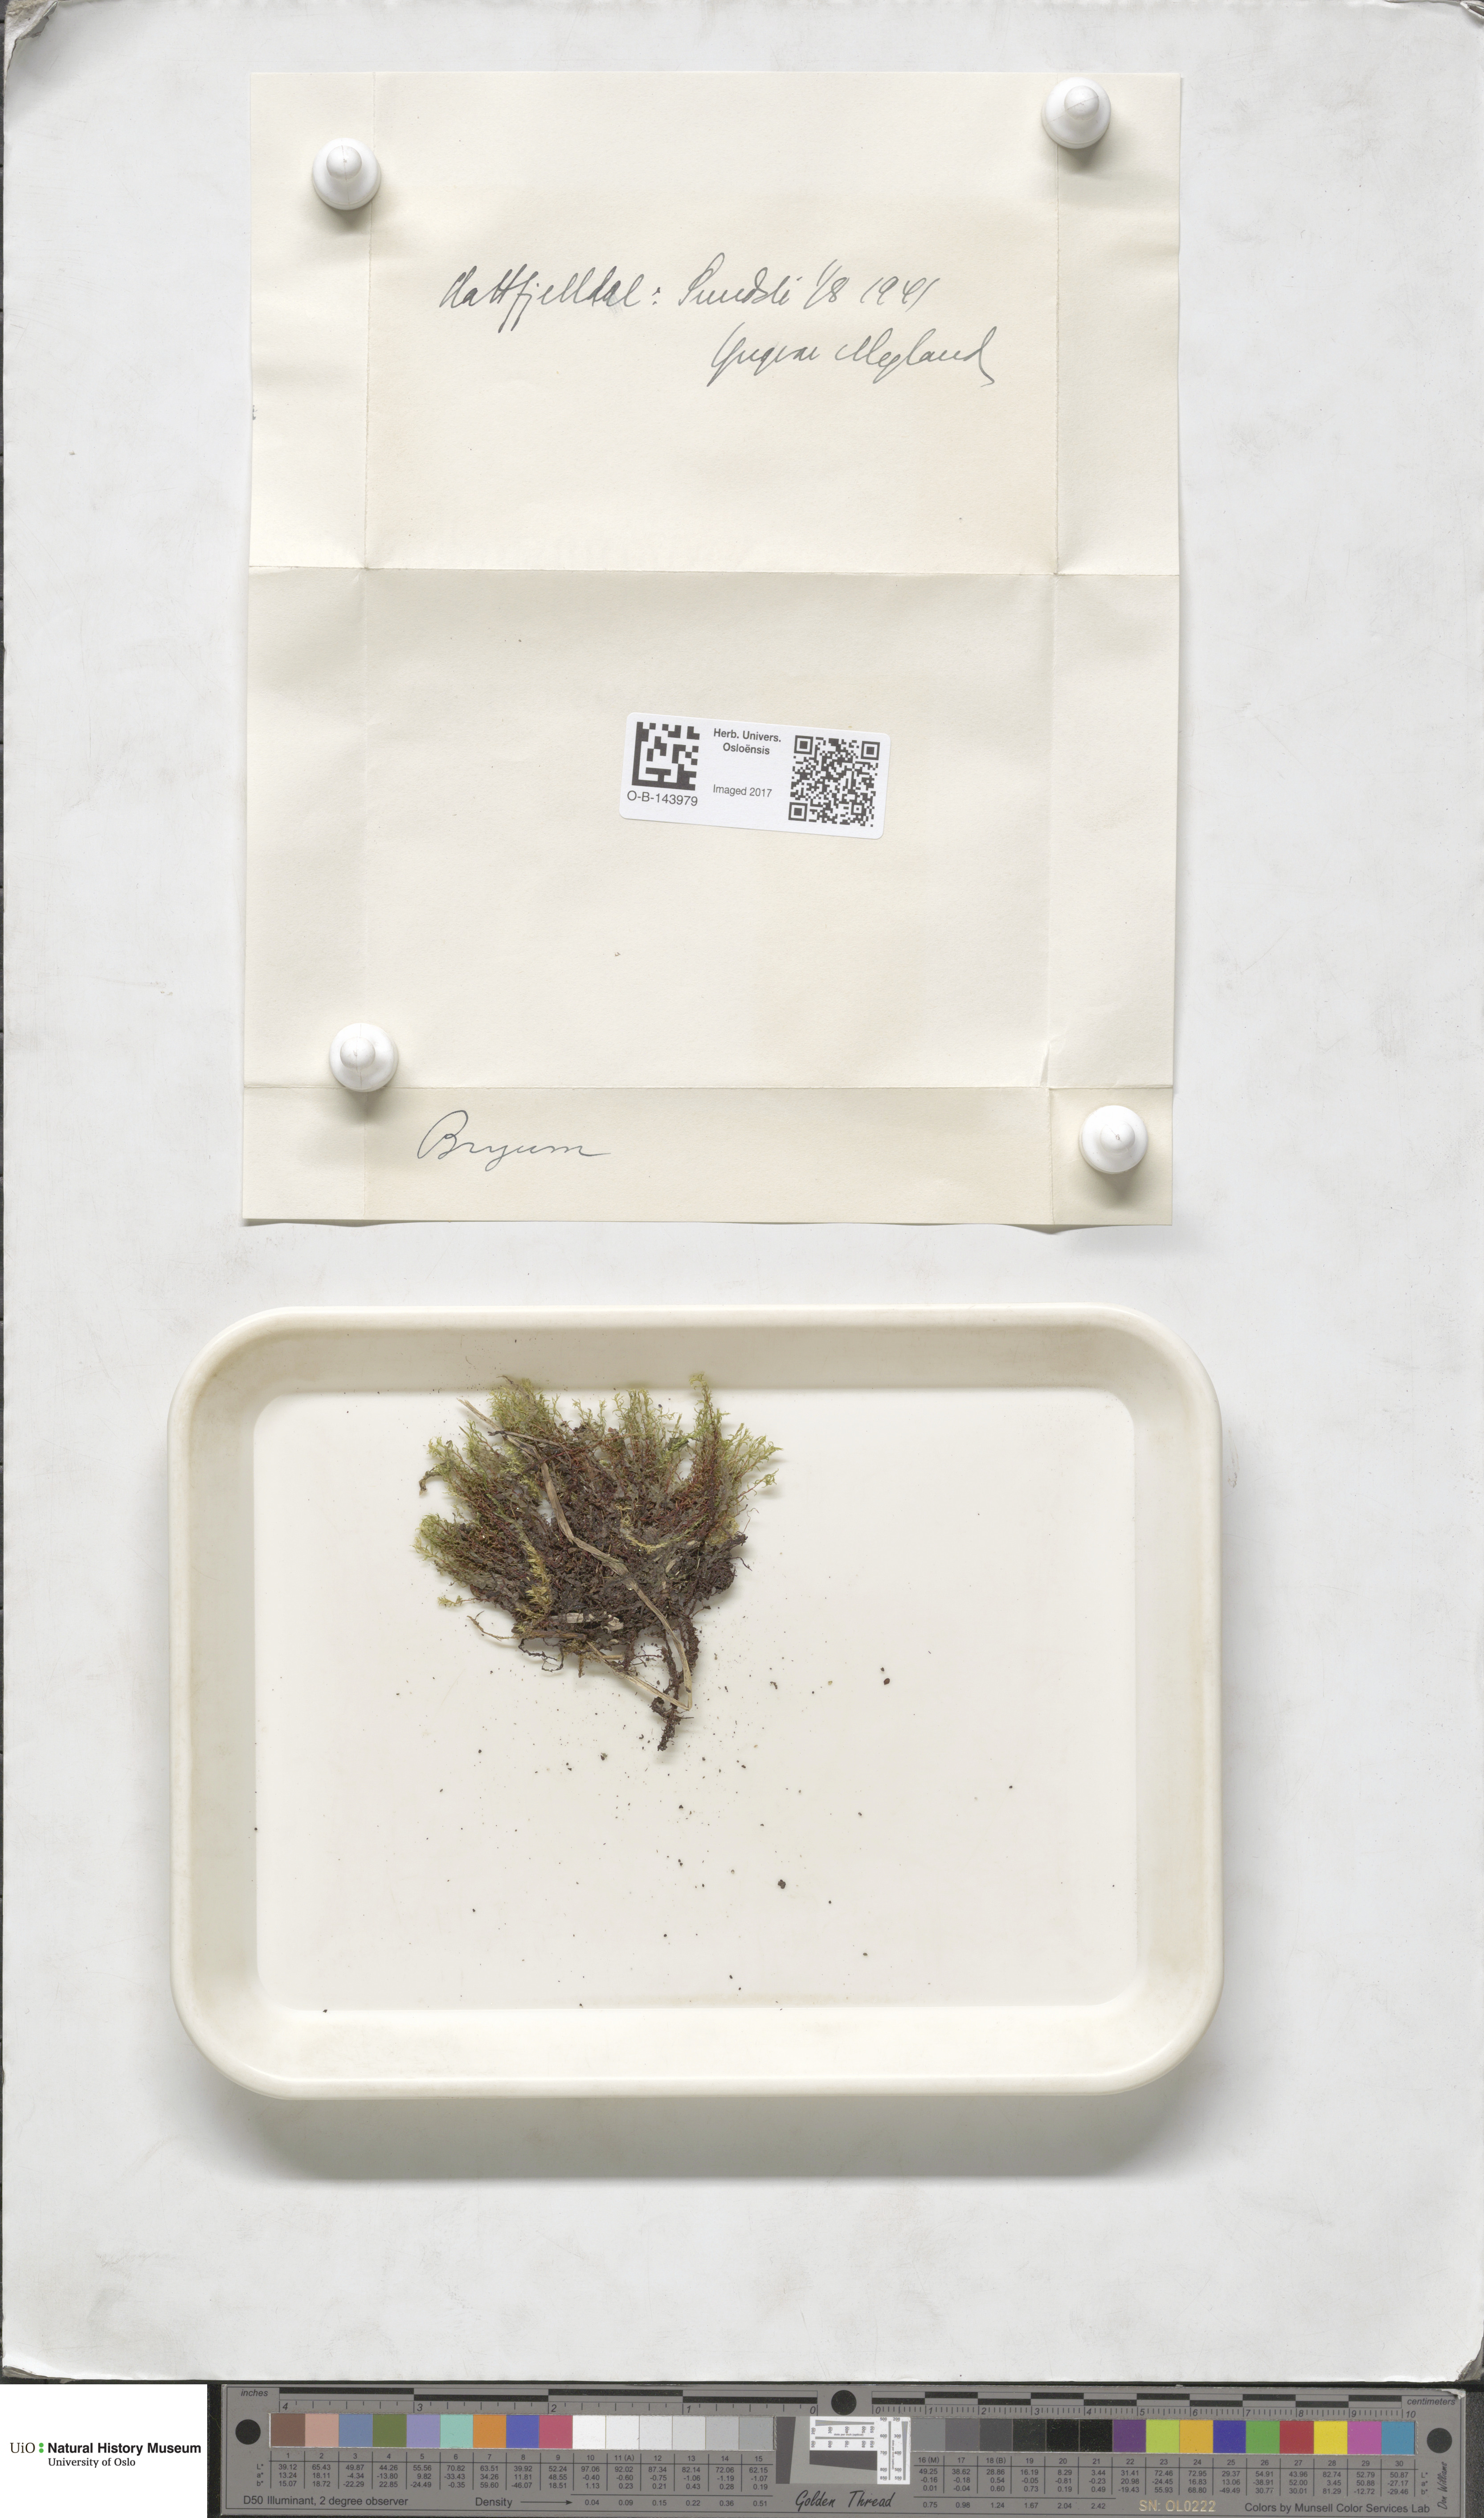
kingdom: Plantae
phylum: Bryophyta
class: Bryopsida
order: Bryales
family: Bryaceae
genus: Bryum
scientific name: Bryum
